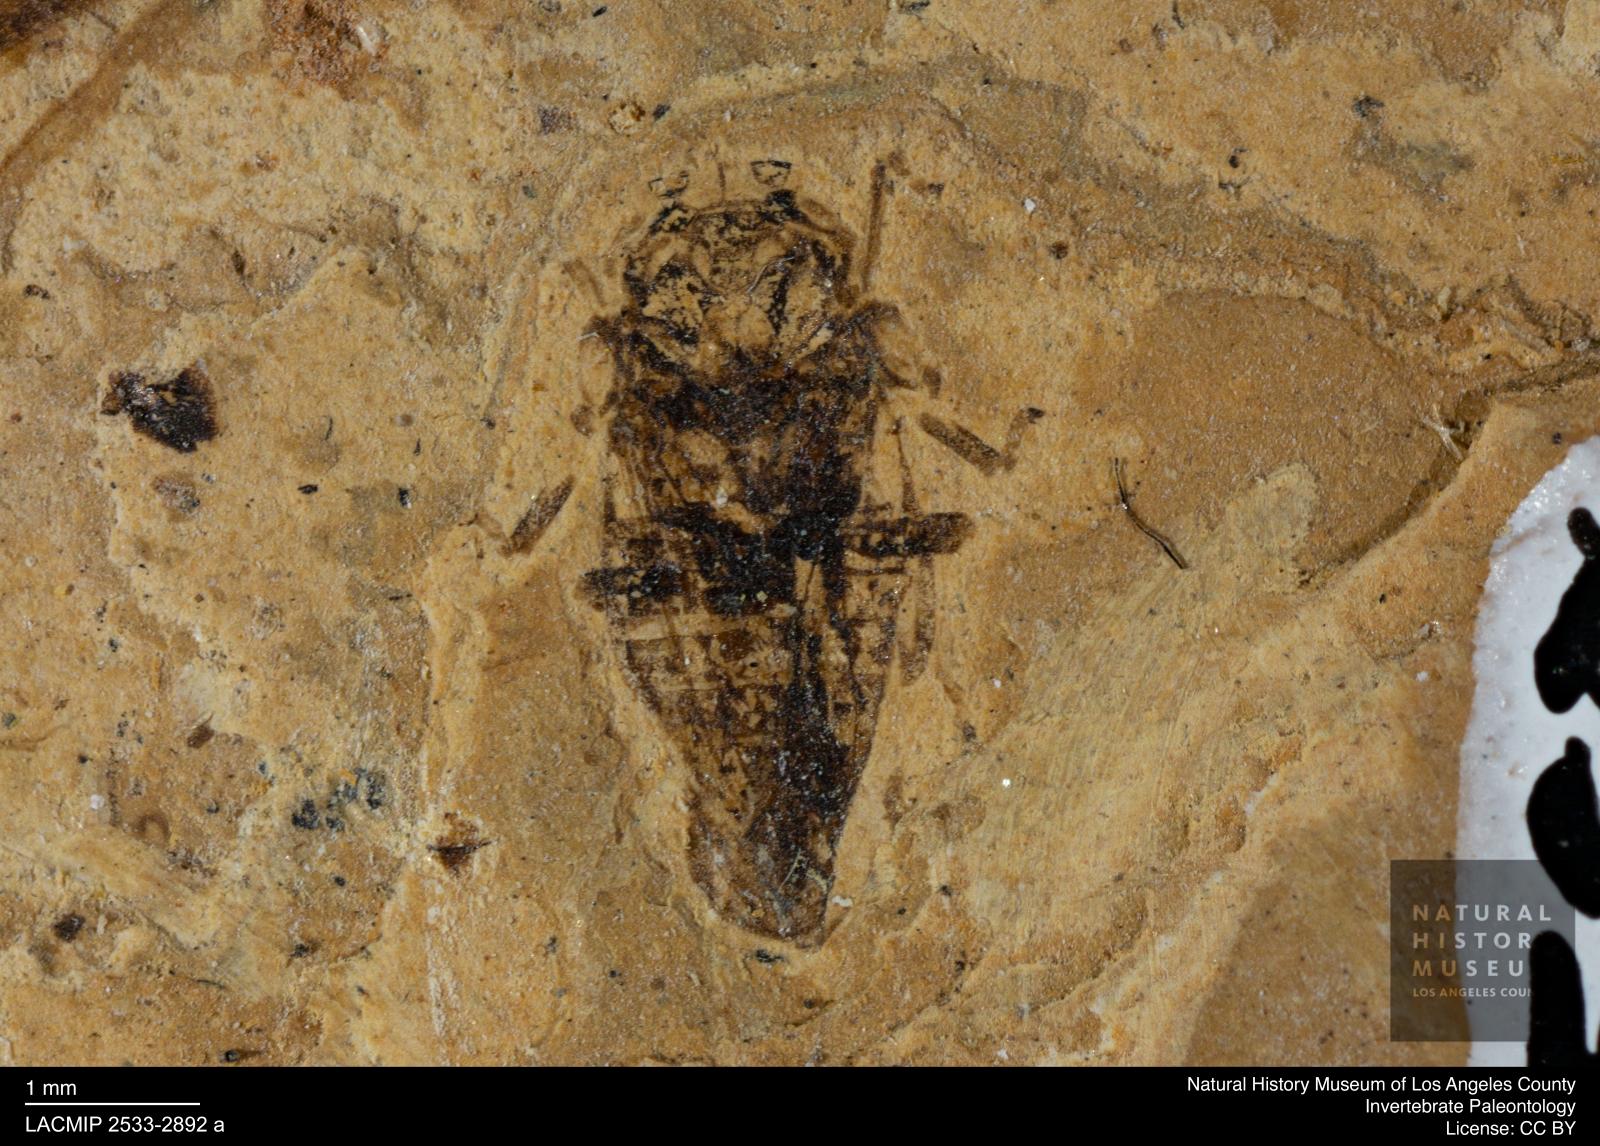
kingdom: Animalia
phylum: Arthropoda
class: Insecta
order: Lepidoptera
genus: Bythoscopus
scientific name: Bythoscopus
